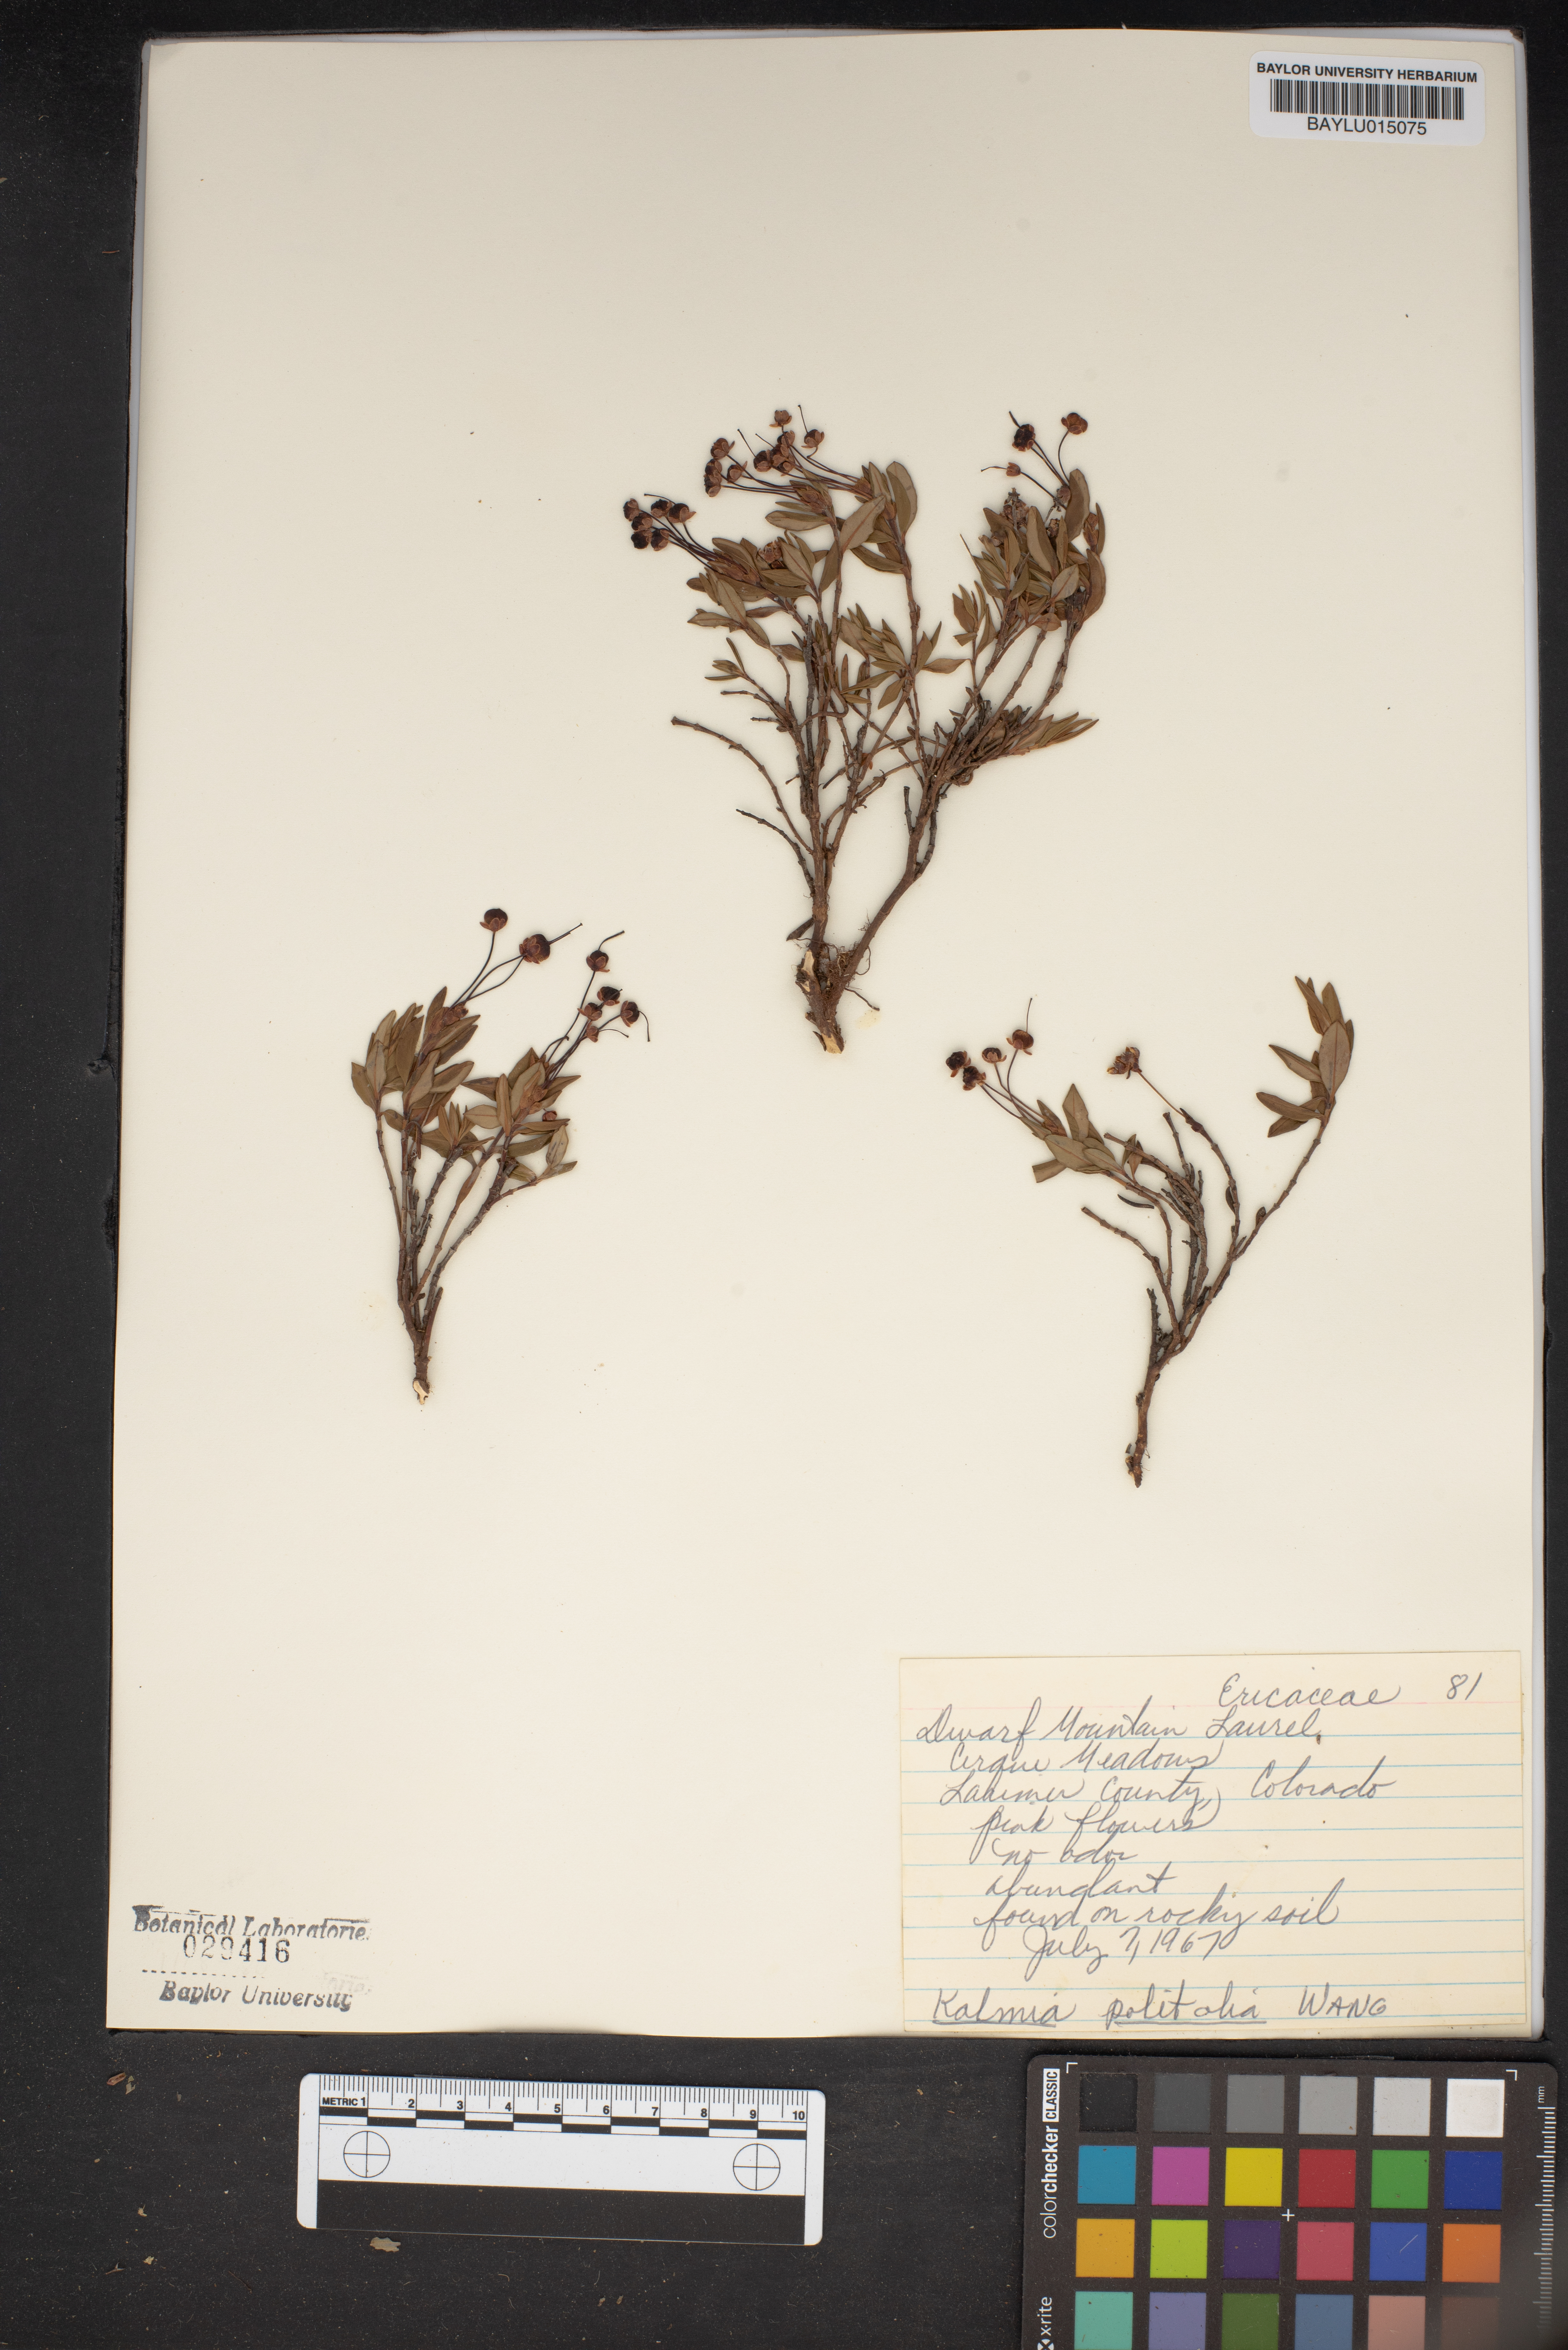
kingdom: Plantae
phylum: Tracheophyta
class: Magnoliopsida
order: Ericales
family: Ericaceae
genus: Kalmia
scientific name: Kalmia polifolia
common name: Bog-laurel
